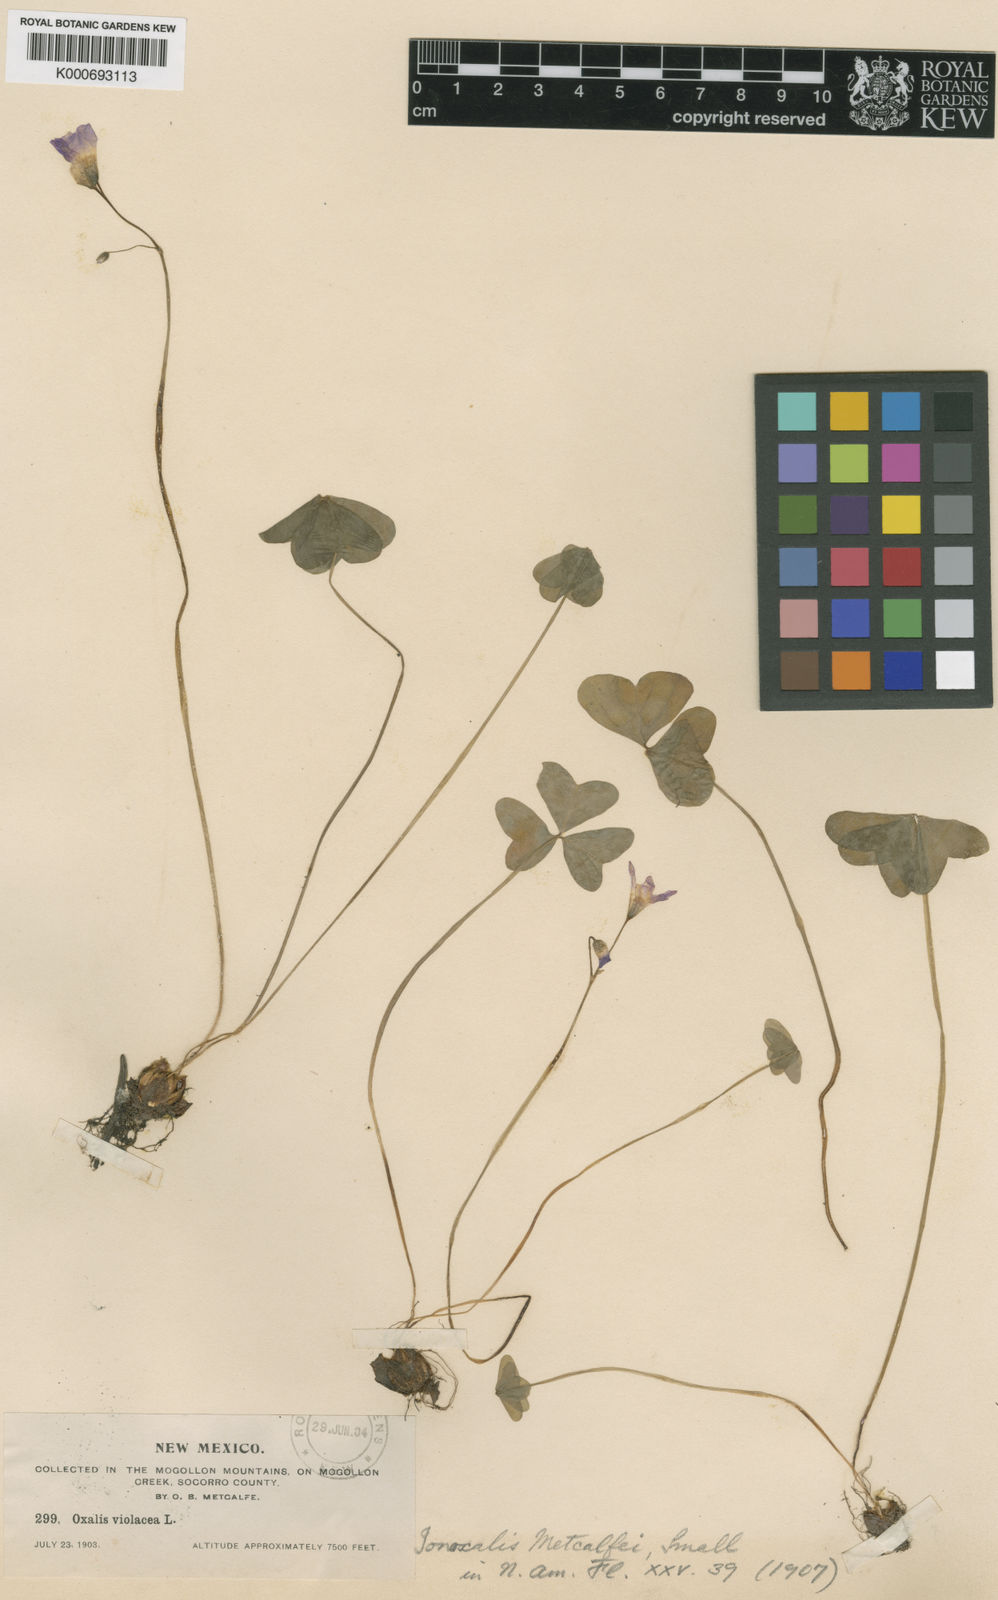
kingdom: Plantae
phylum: Tracheophyta
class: Magnoliopsida
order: Oxalidales
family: Oxalidaceae
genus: Oxalis
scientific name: Oxalis metcalfei
